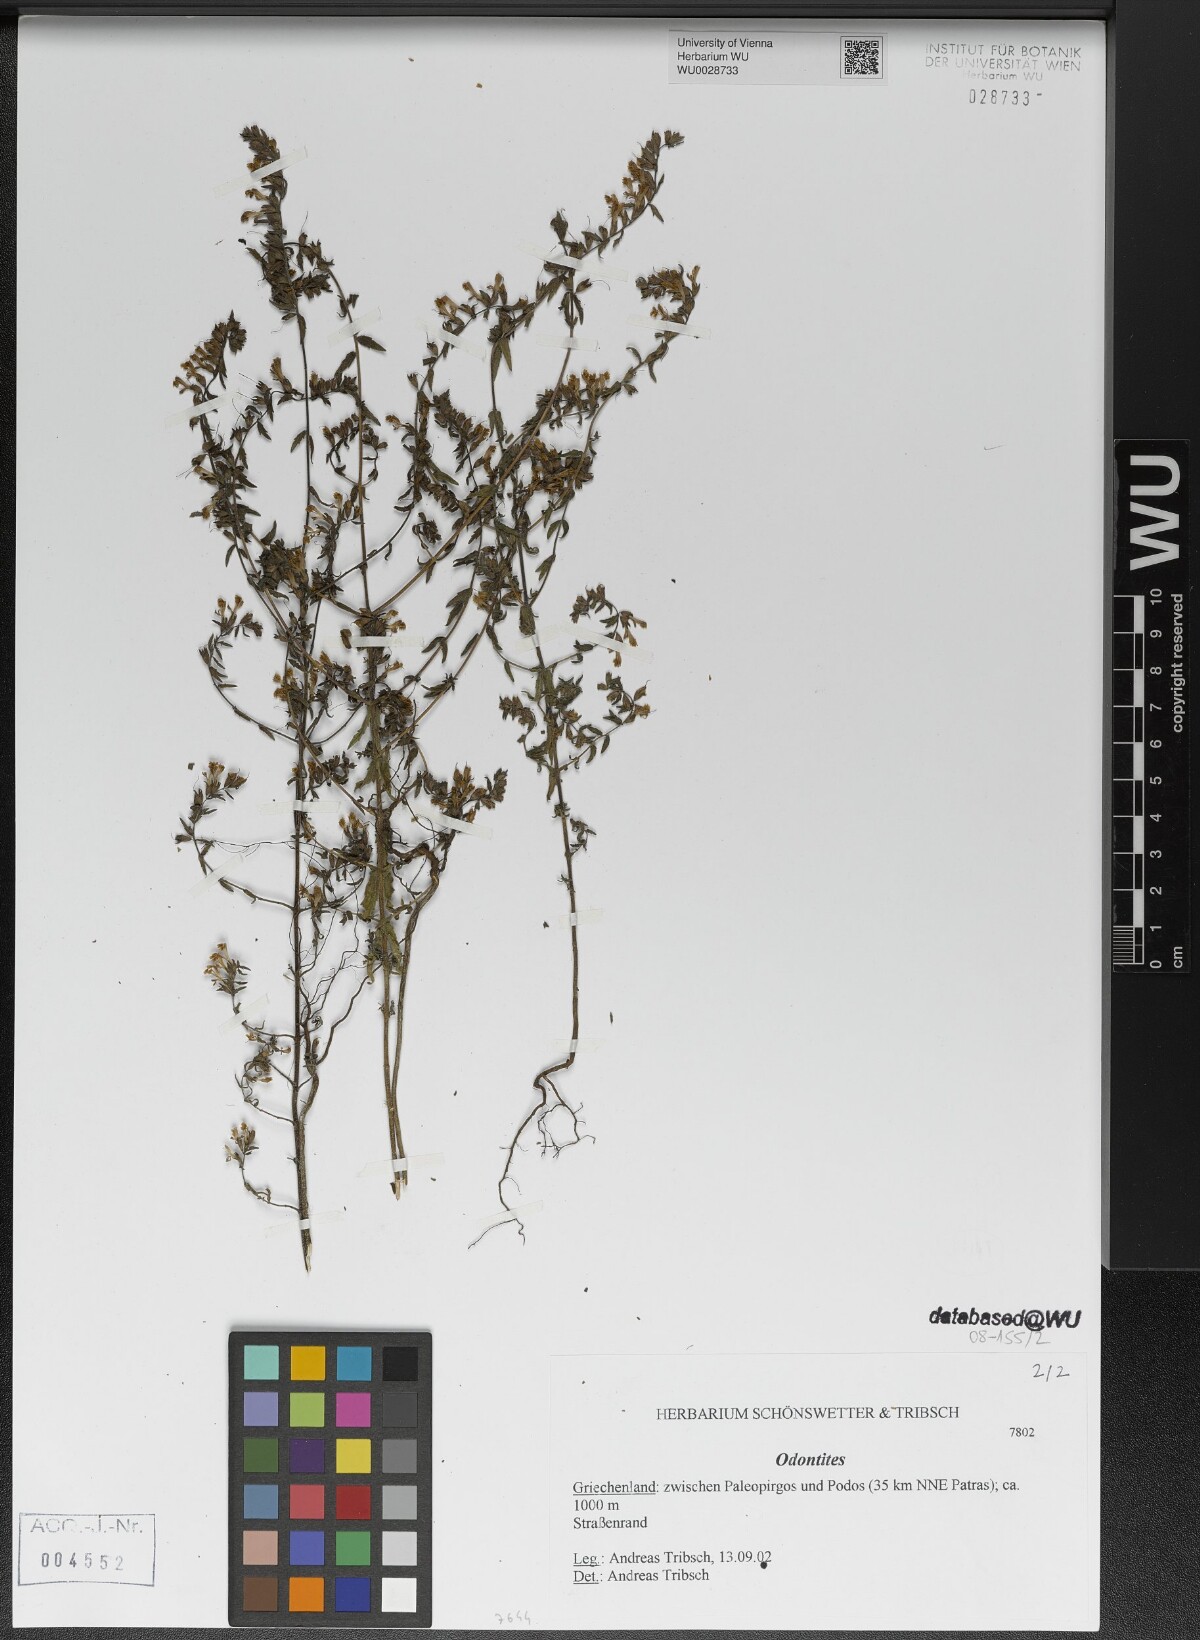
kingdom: Plantae
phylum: Tracheophyta
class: Magnoliopsida
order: Lamiales
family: Orobanchaceae
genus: Odontites
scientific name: Odontites
